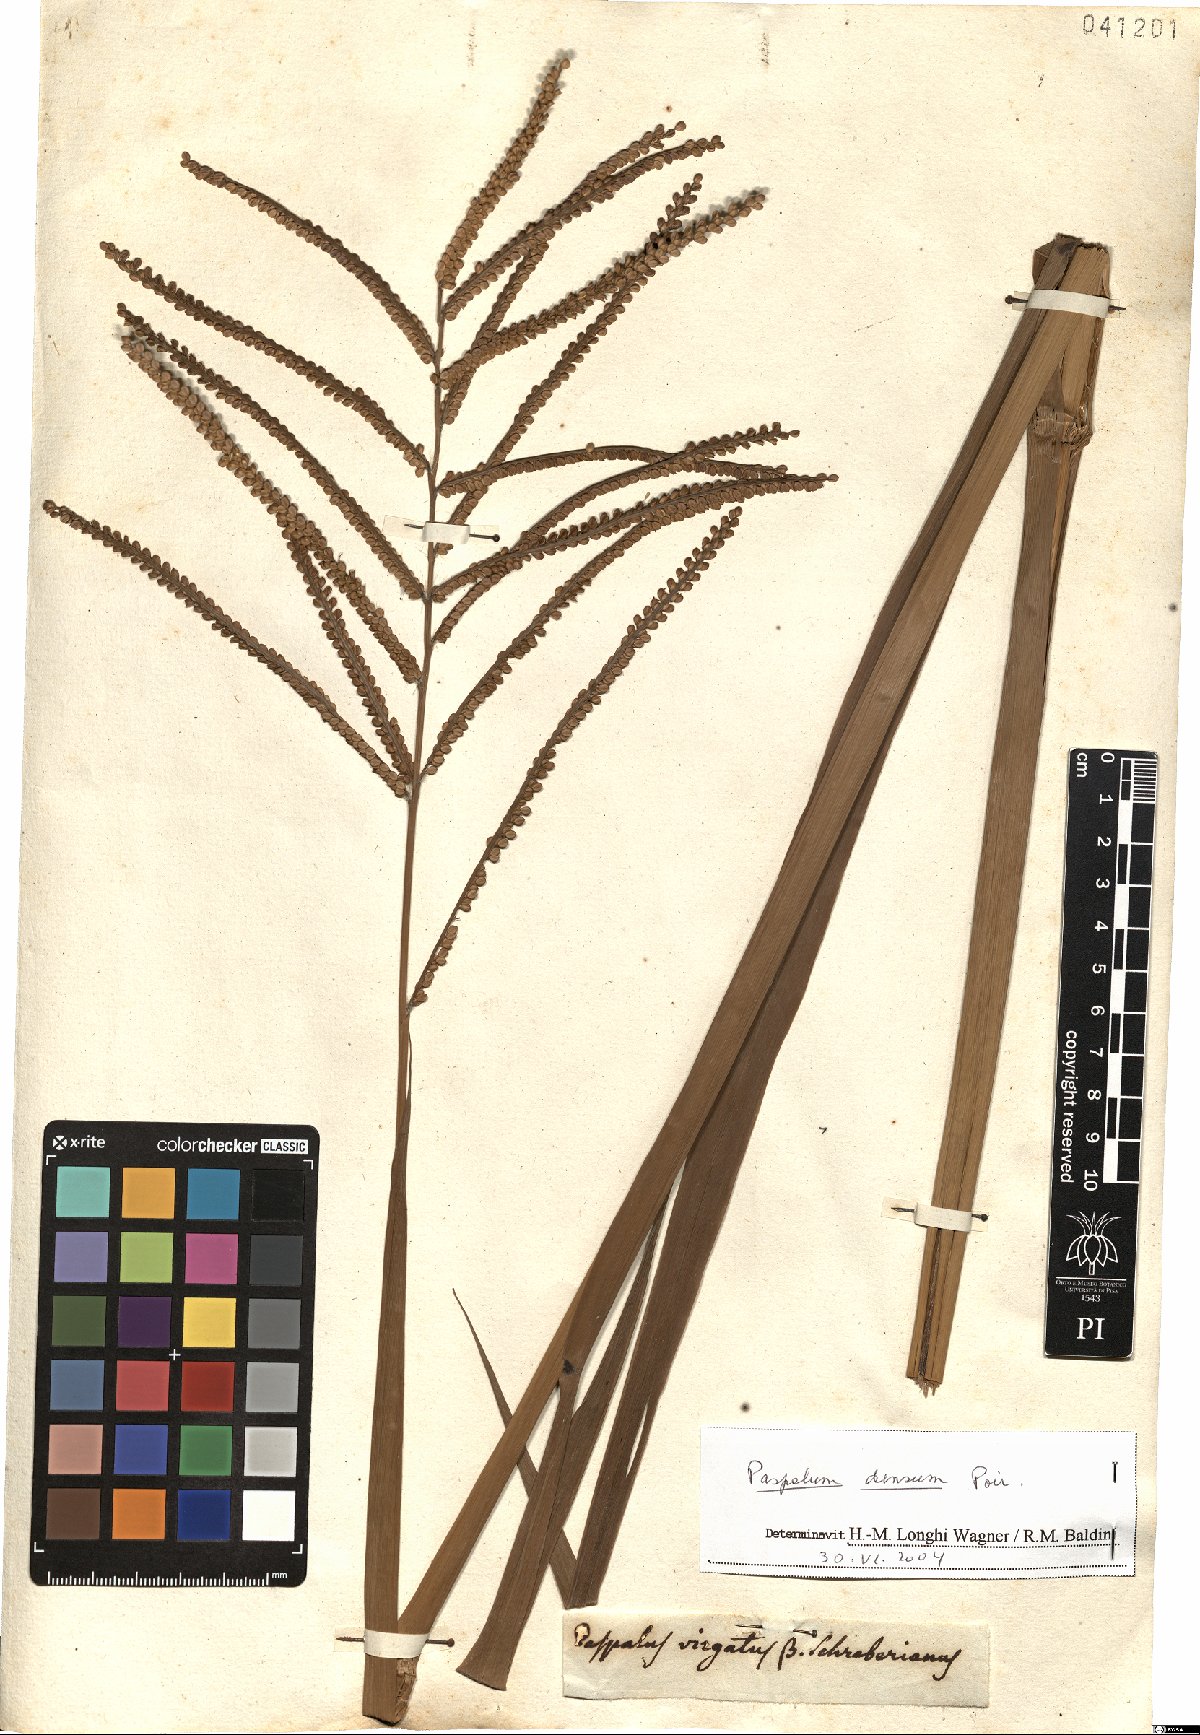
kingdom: Plantae
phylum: Tracheophyta
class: Liliopsida
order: Poales
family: Poaceae
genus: Paspalum
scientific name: Paspalum densum
